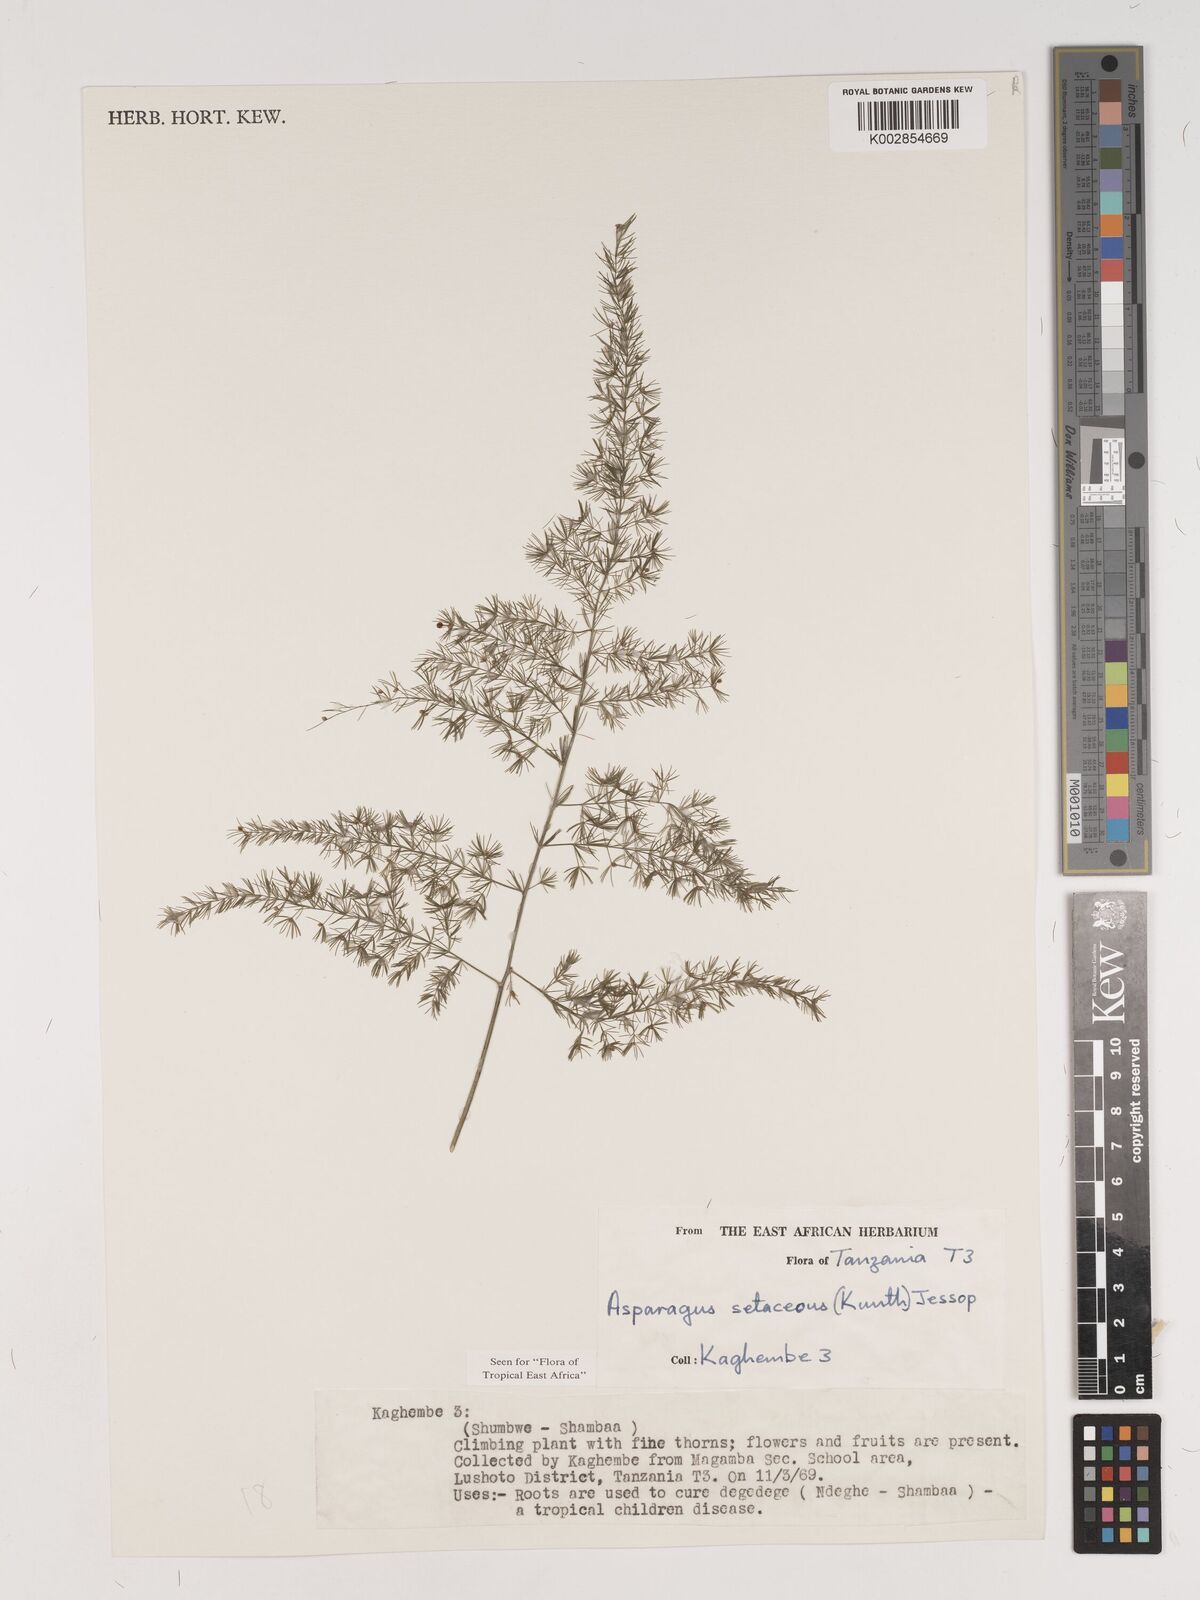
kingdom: Plantae
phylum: Tracheophyta
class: Liliopsida
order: Asparagales
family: Asparagaceae
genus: Asparagus
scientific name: Asparagus setaceus
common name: Common asparagus fern
